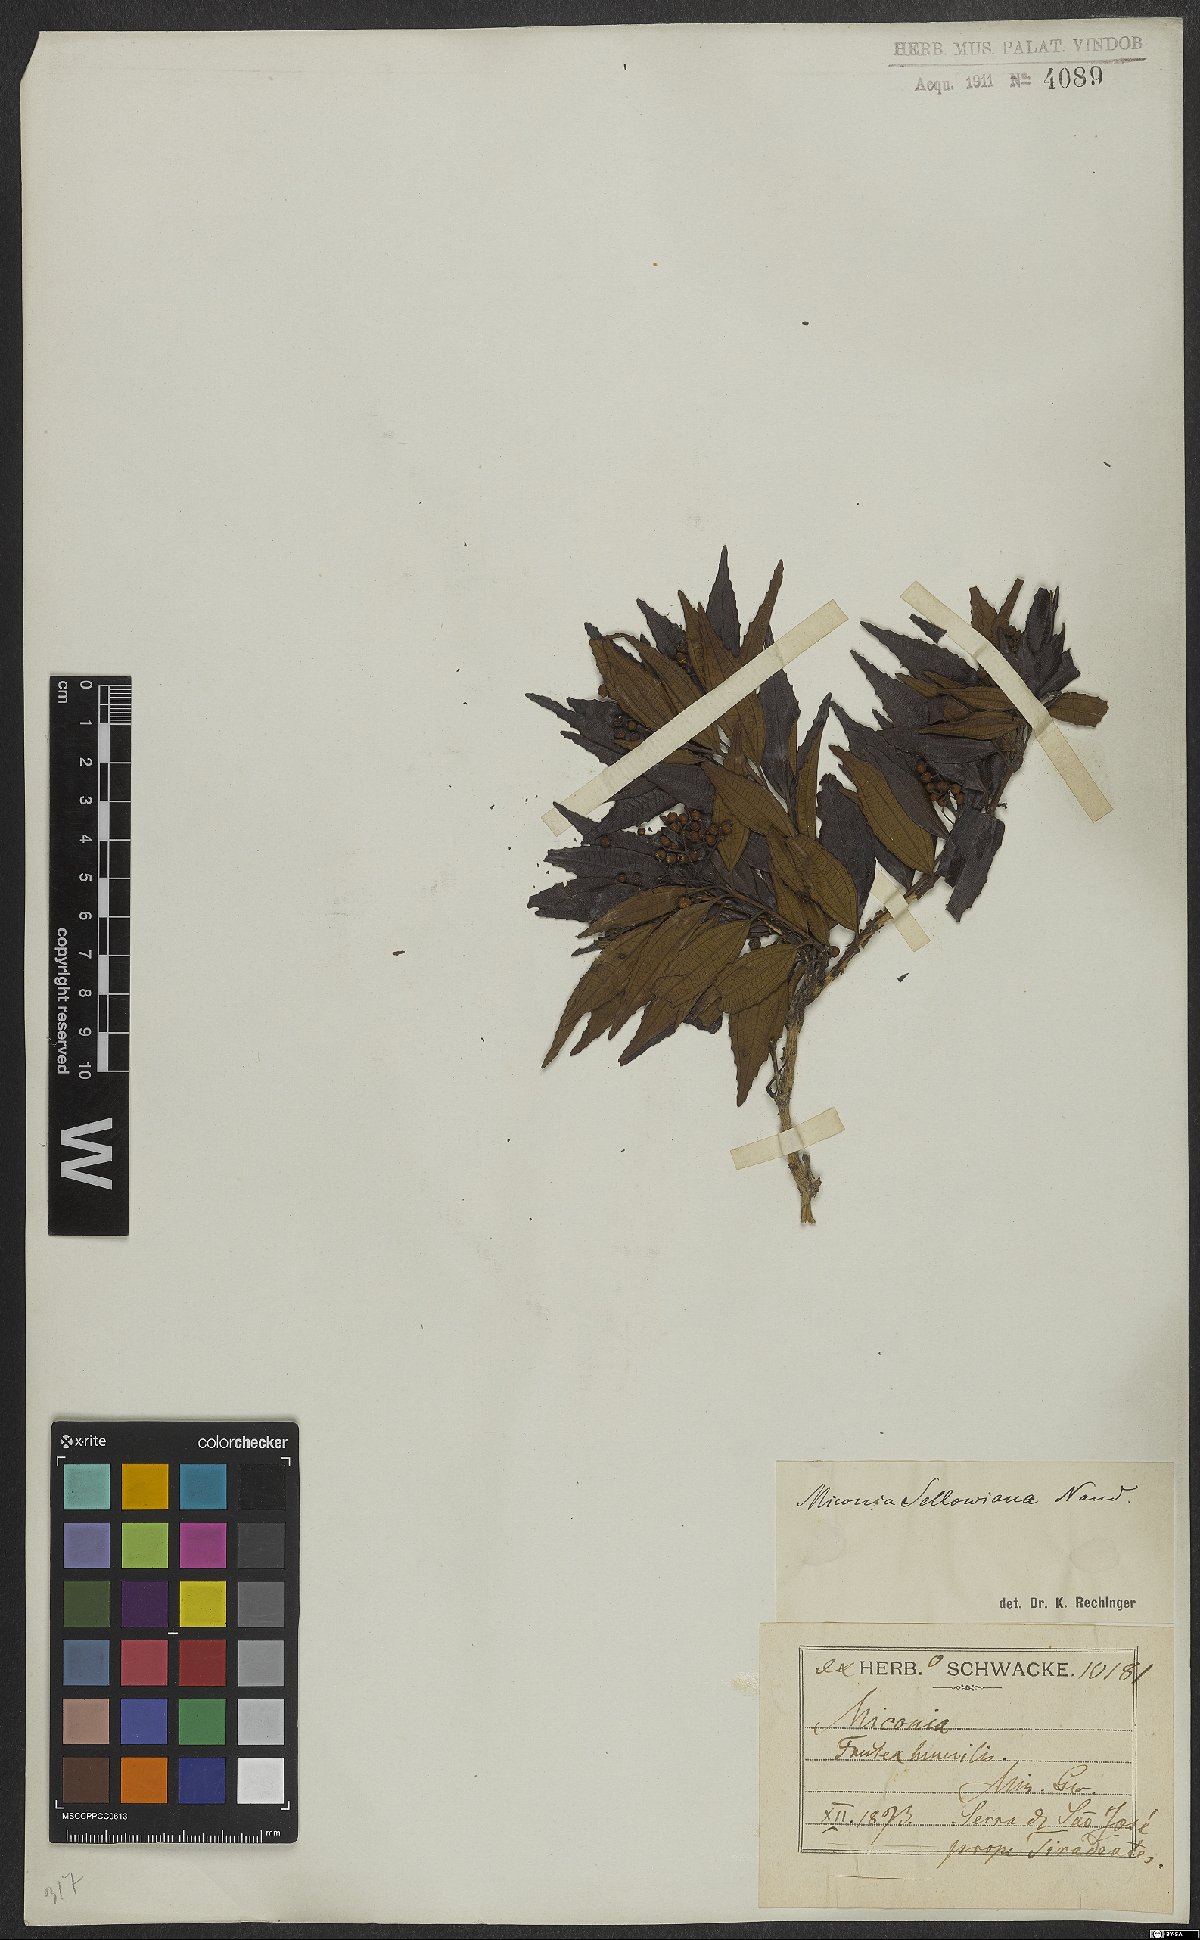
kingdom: Plantae
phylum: Tracheophyta
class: Magnoliopsida
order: Myrtales
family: Melastomataceae
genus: Miconia
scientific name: Miconia sellowiana
